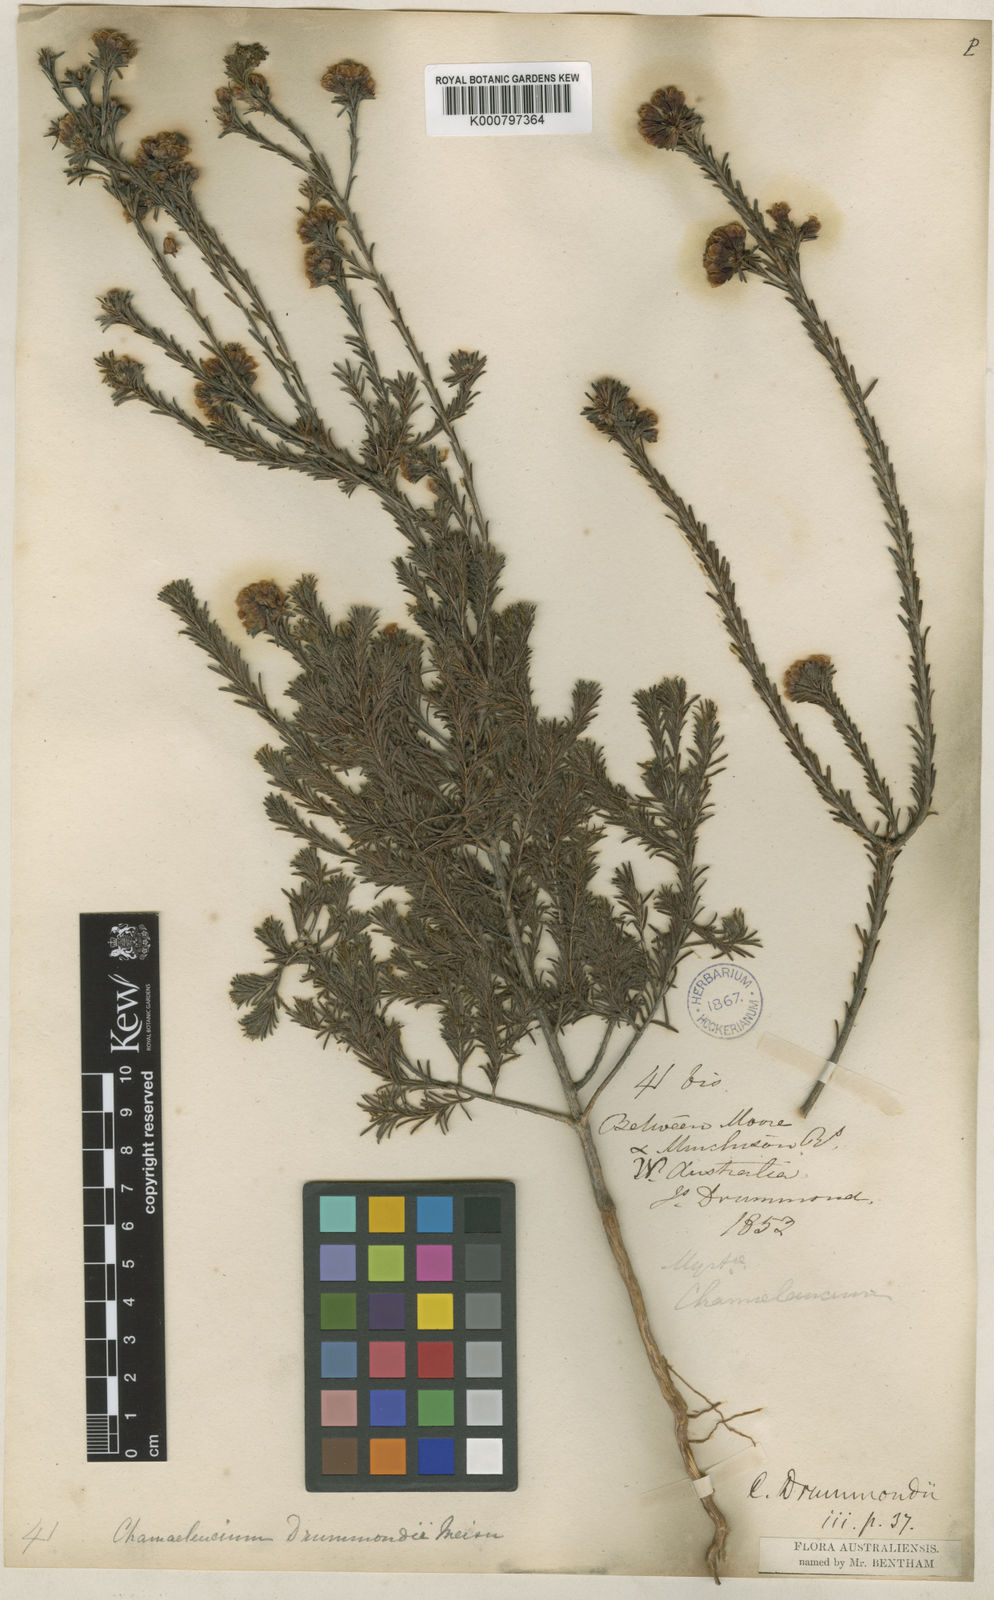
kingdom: Plantae
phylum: Tracheophyta
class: Magnoliopsida
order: Myrtales
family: Myrtaceae
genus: Chamelaucium
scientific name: Chamelaucium drummondii
